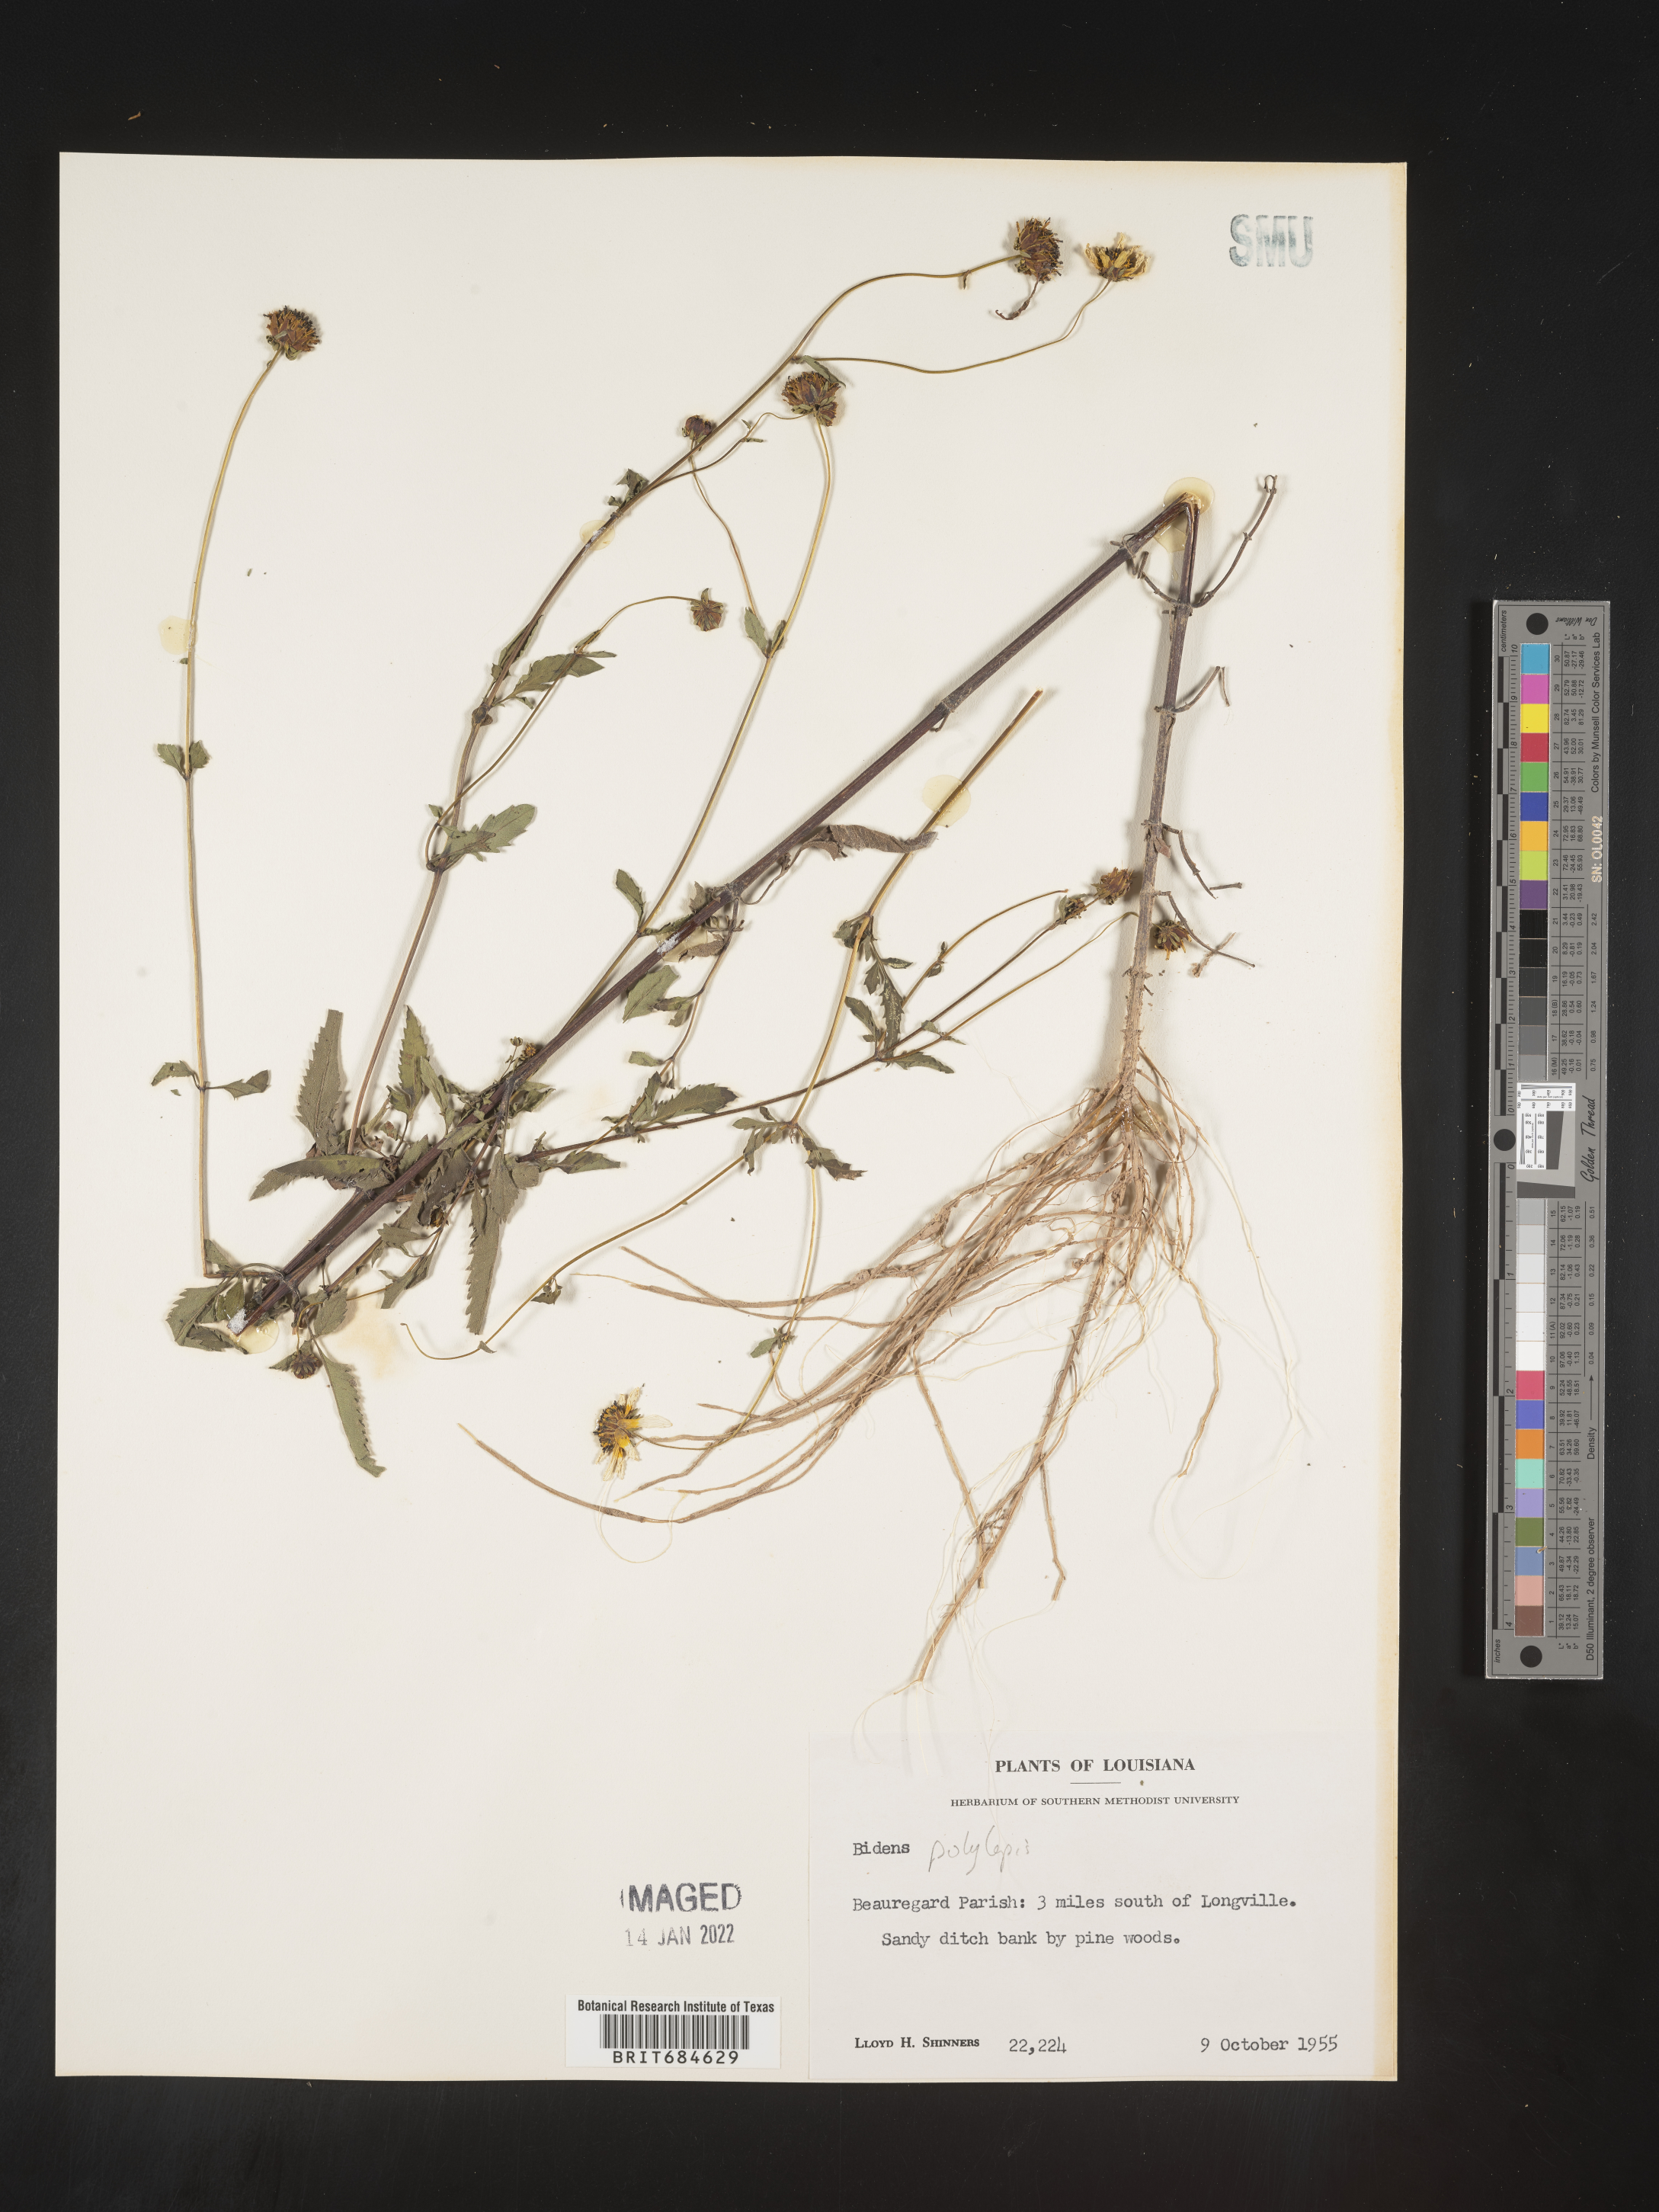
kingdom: Plantae
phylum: Tracheophyta
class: Magnoliopsida
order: Asterales
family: Asteraceae
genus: Bidens
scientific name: Bidens polylepis
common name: Awnless beggarticks
